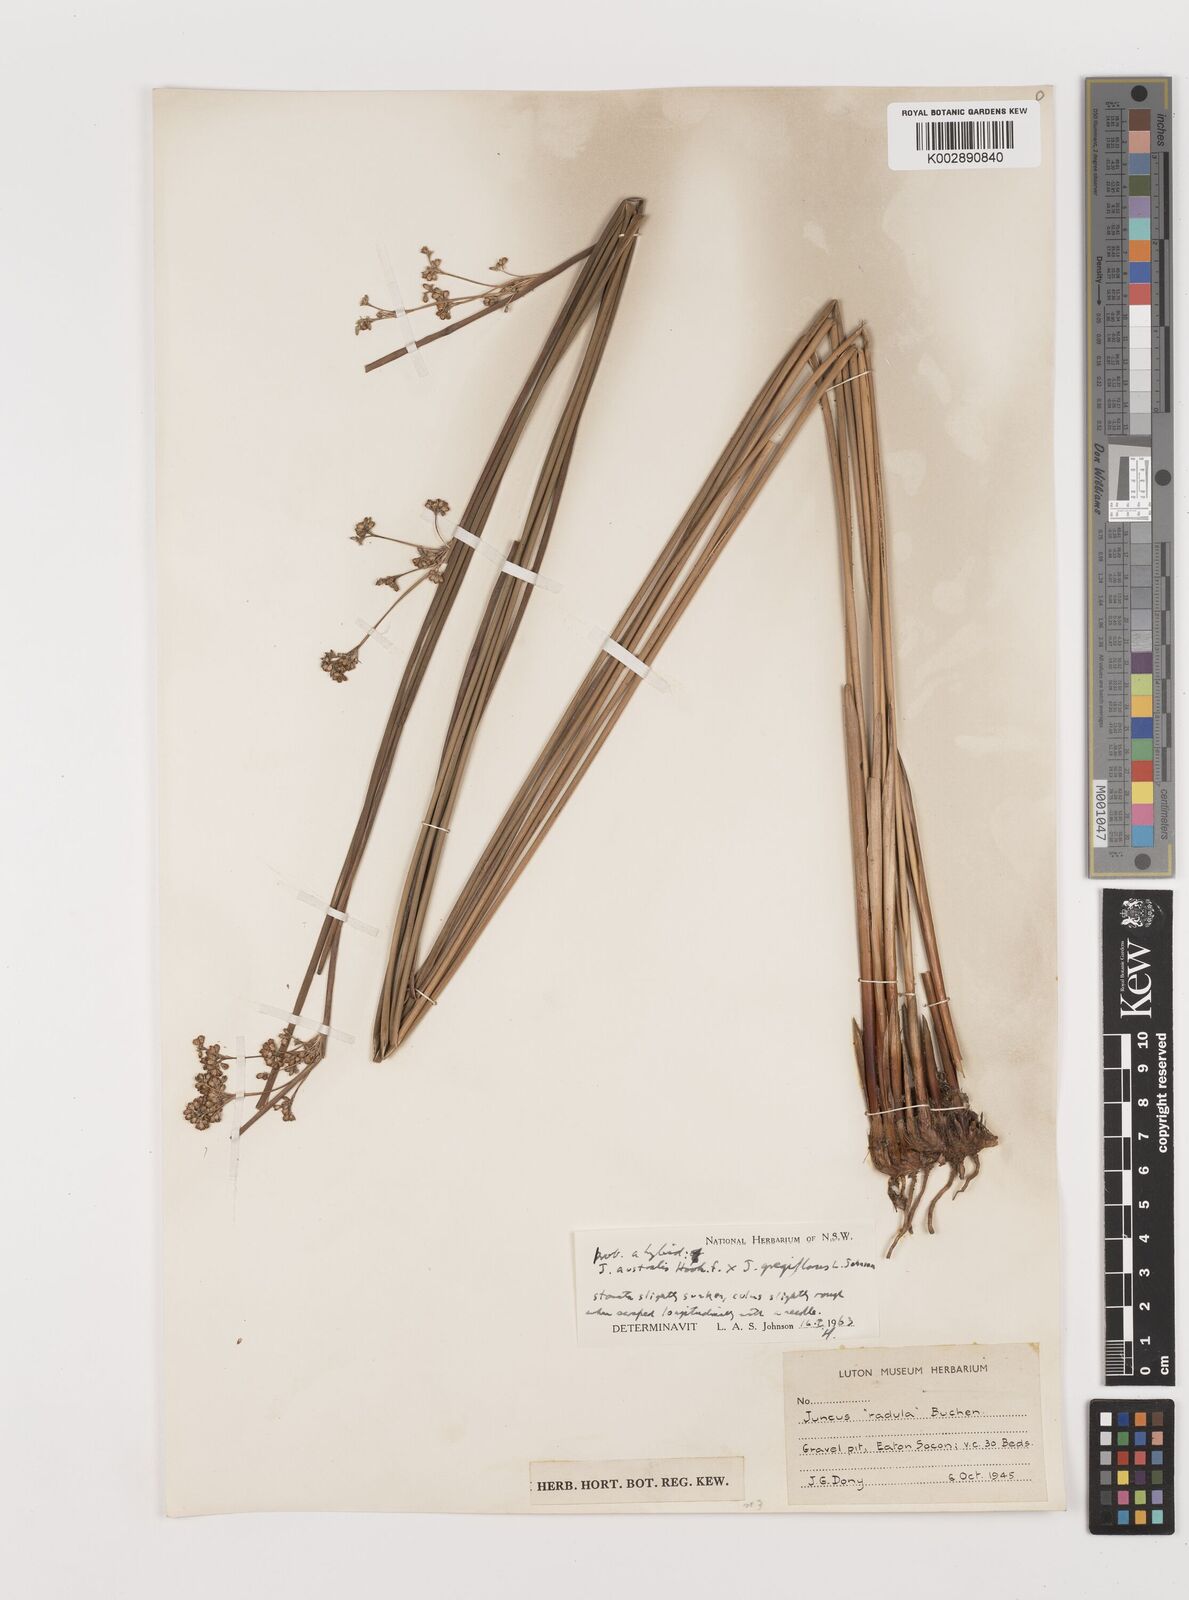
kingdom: Plantae
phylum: Tracheophyta
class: Liliopsida
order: Poales
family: Juncaceae
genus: Juncus
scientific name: Juncus australis
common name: Austral rush
